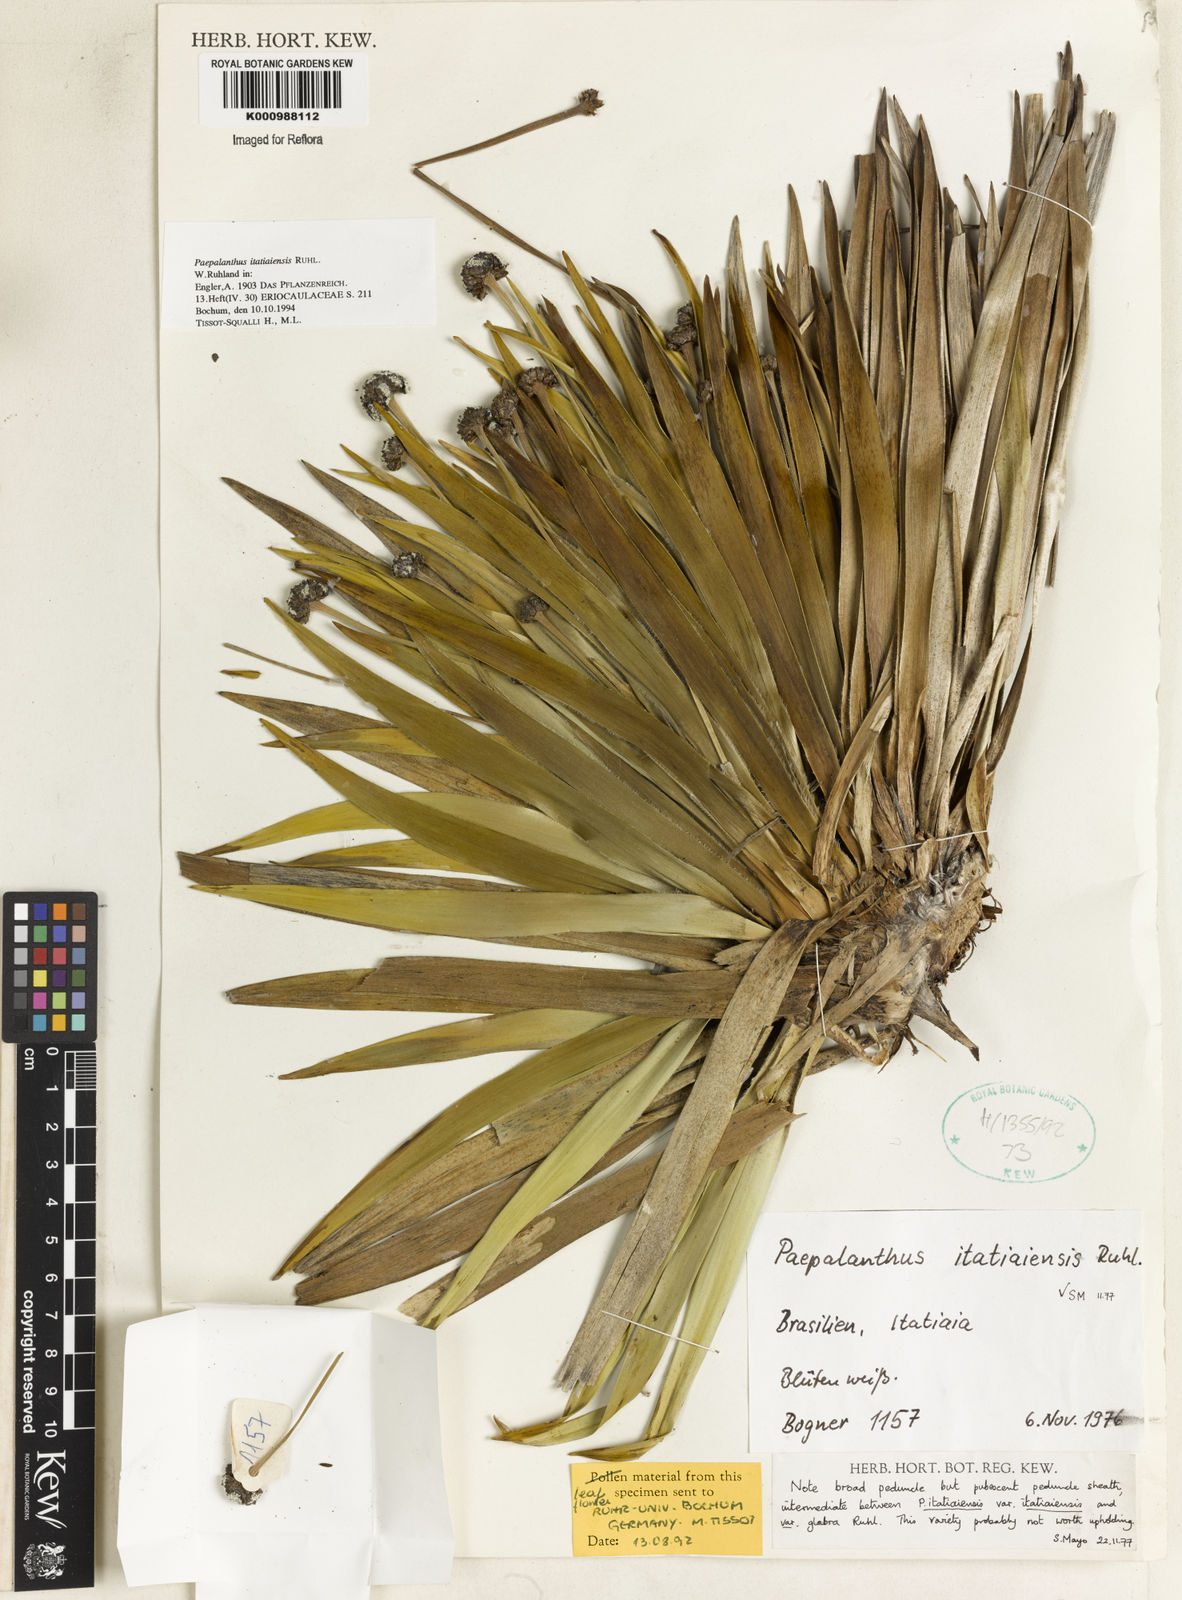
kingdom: Plantae
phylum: Tracheophyta
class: Liliopsida
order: Poales
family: Eriocaulaceae
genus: Paepalanthus
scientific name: Paepalanthus itatiaiensis
